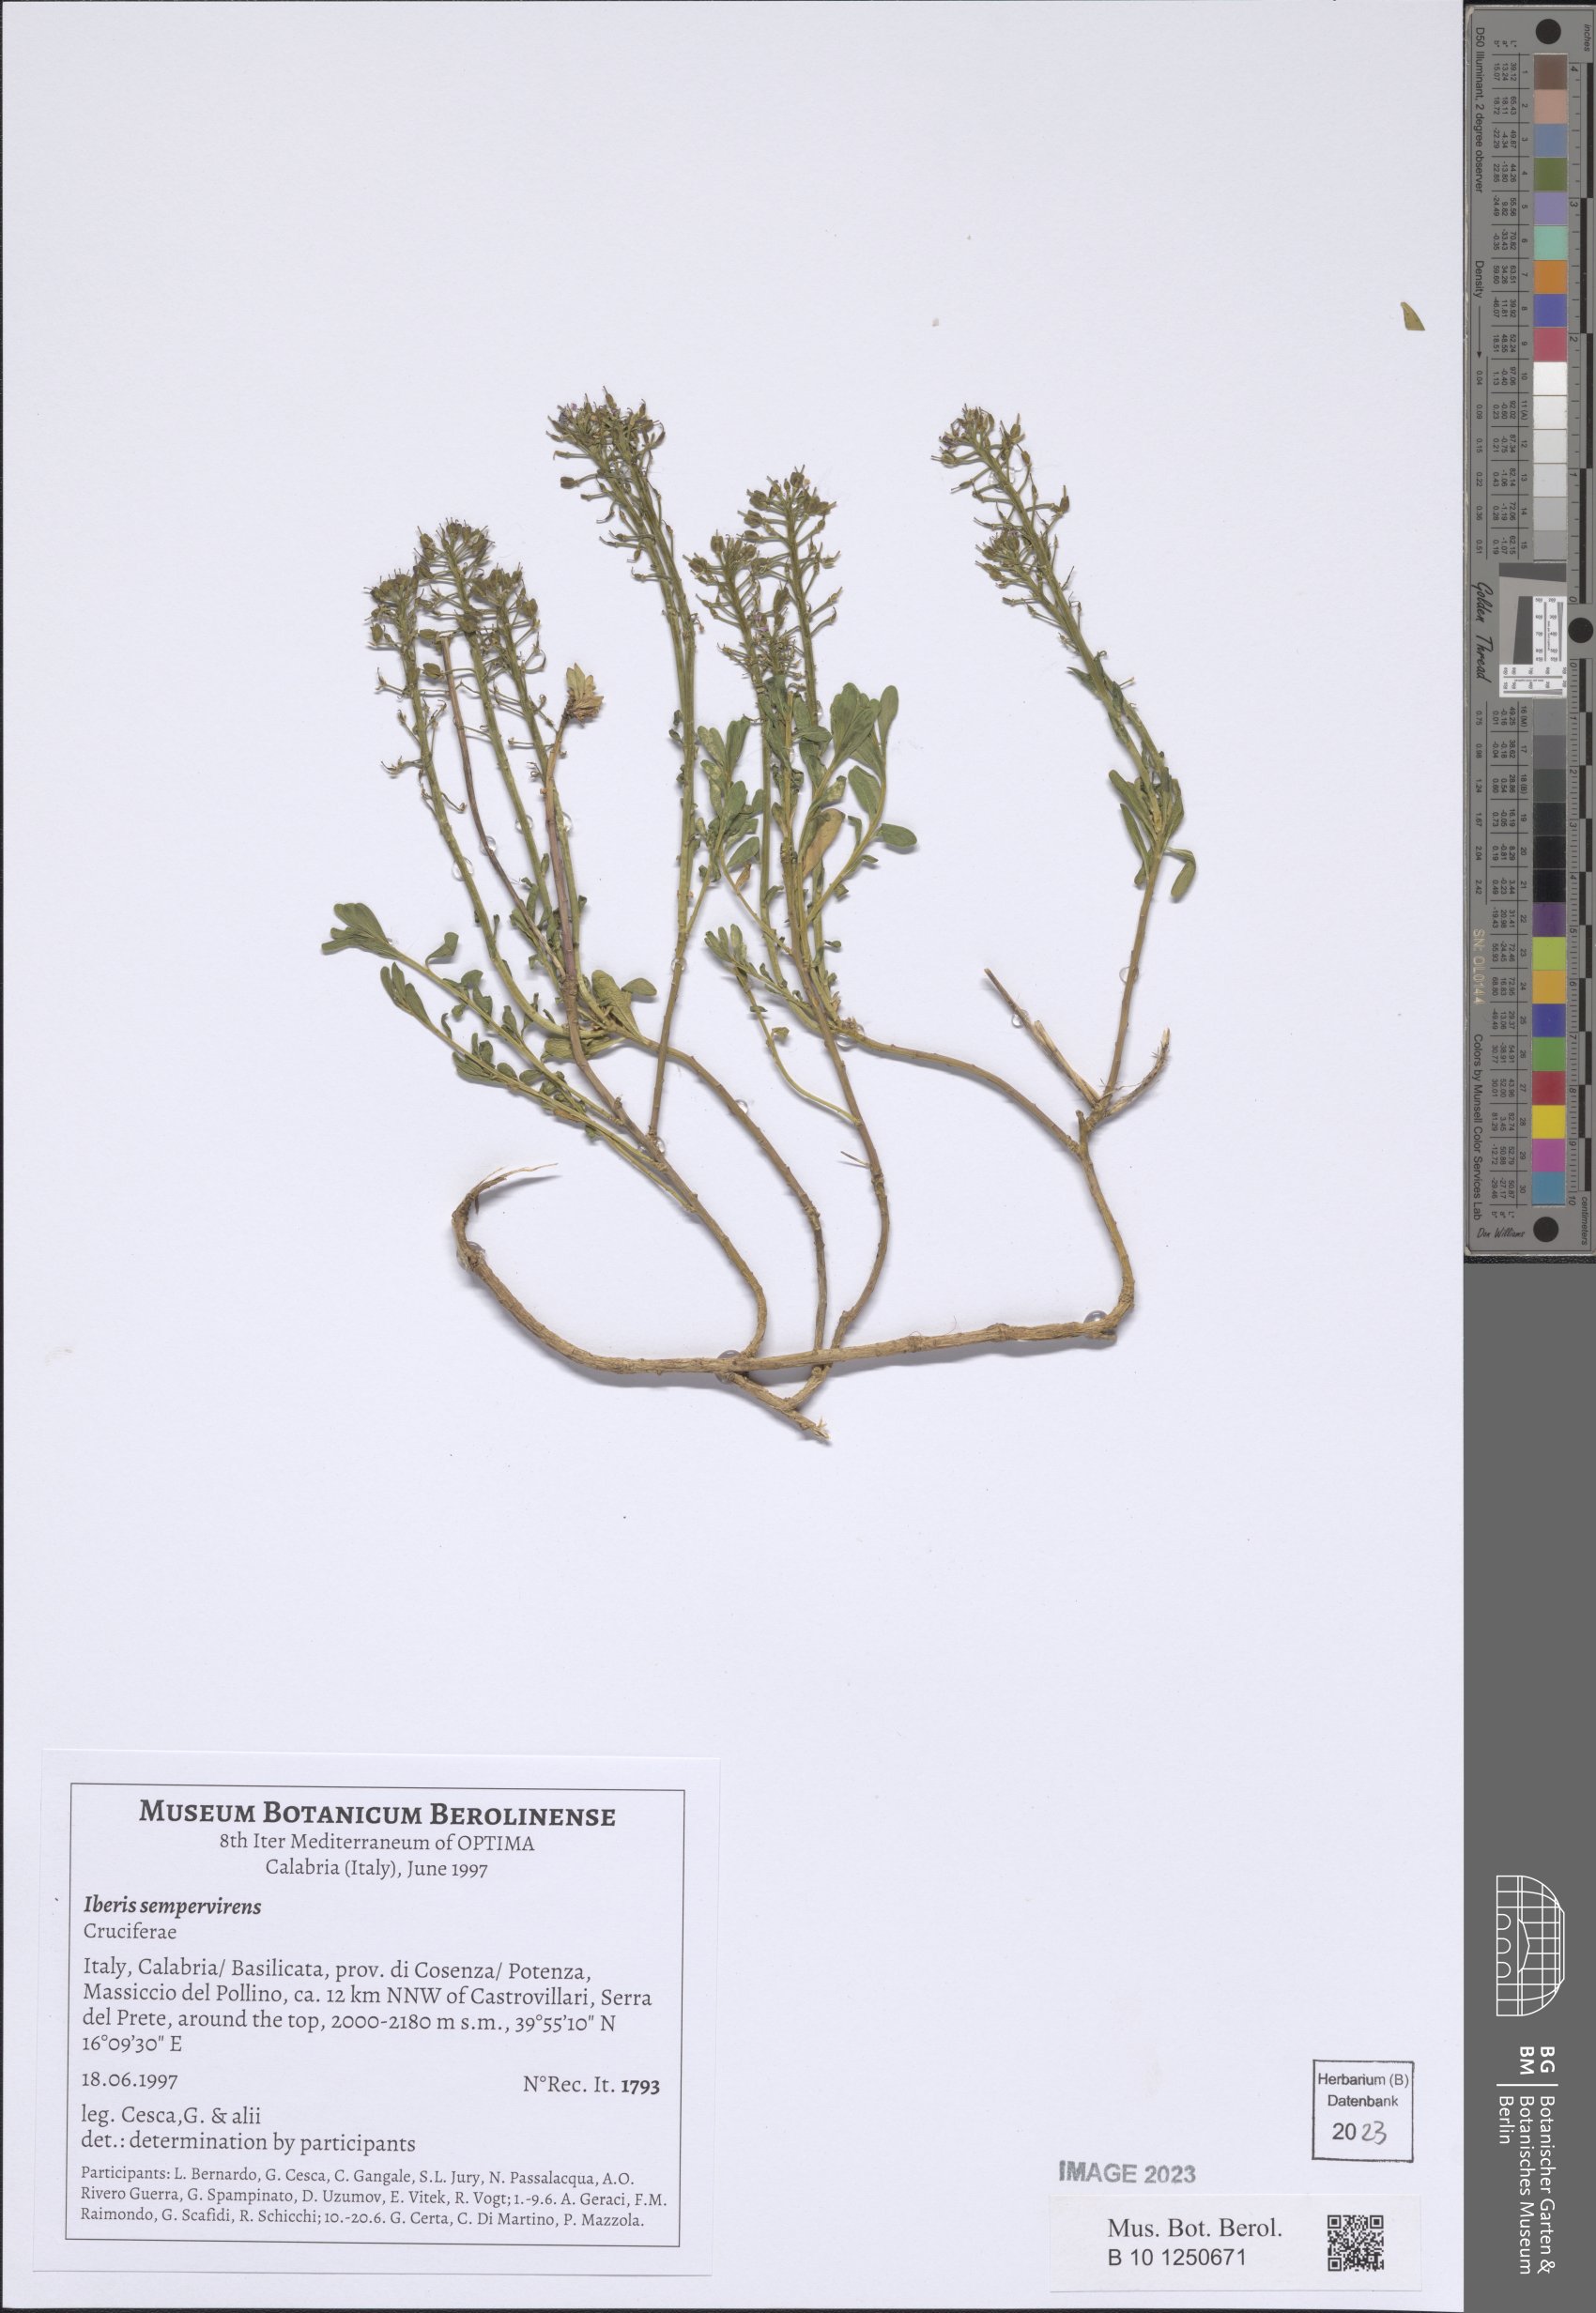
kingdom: Plantae
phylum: Tracheophyta
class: Magnoliopsida
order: Brassicales
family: Brassicaceae
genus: Iberis
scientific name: Iberis sempervirens
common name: Evergreen candytuft
